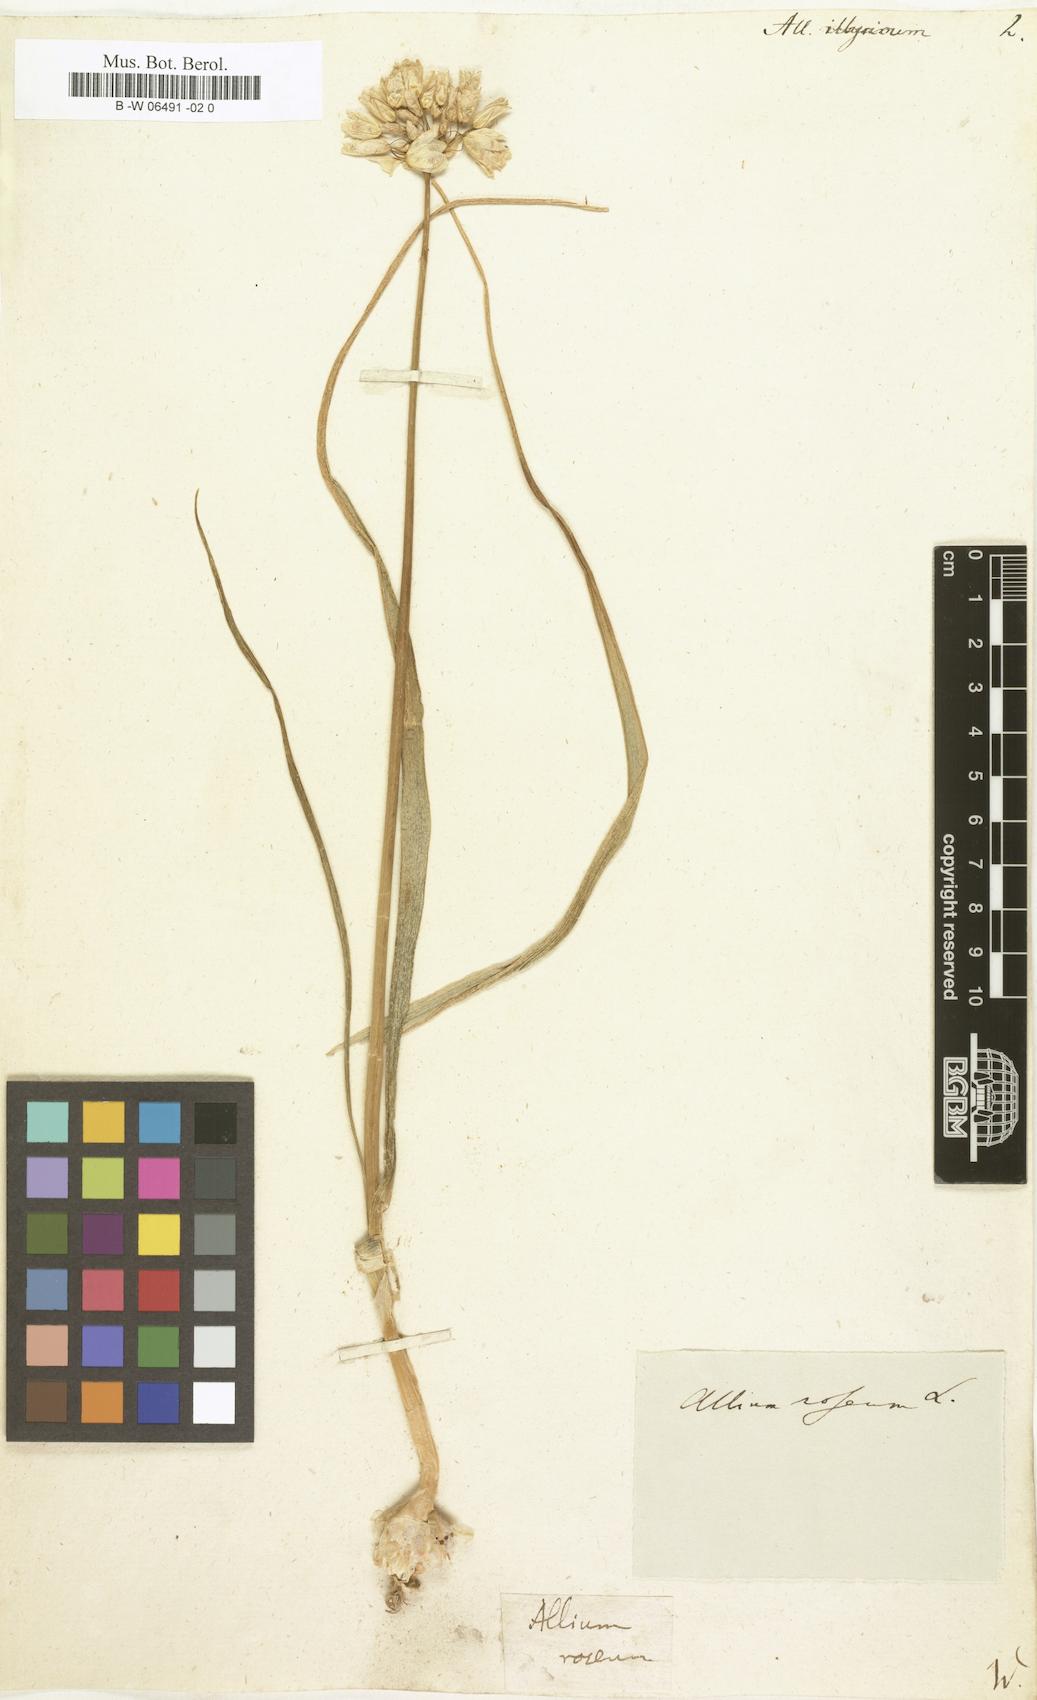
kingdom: Plantae
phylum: Tracheophyta
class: Liliopsida
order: Asparagales
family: Amaryllidaceae
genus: Allium
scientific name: Allium
